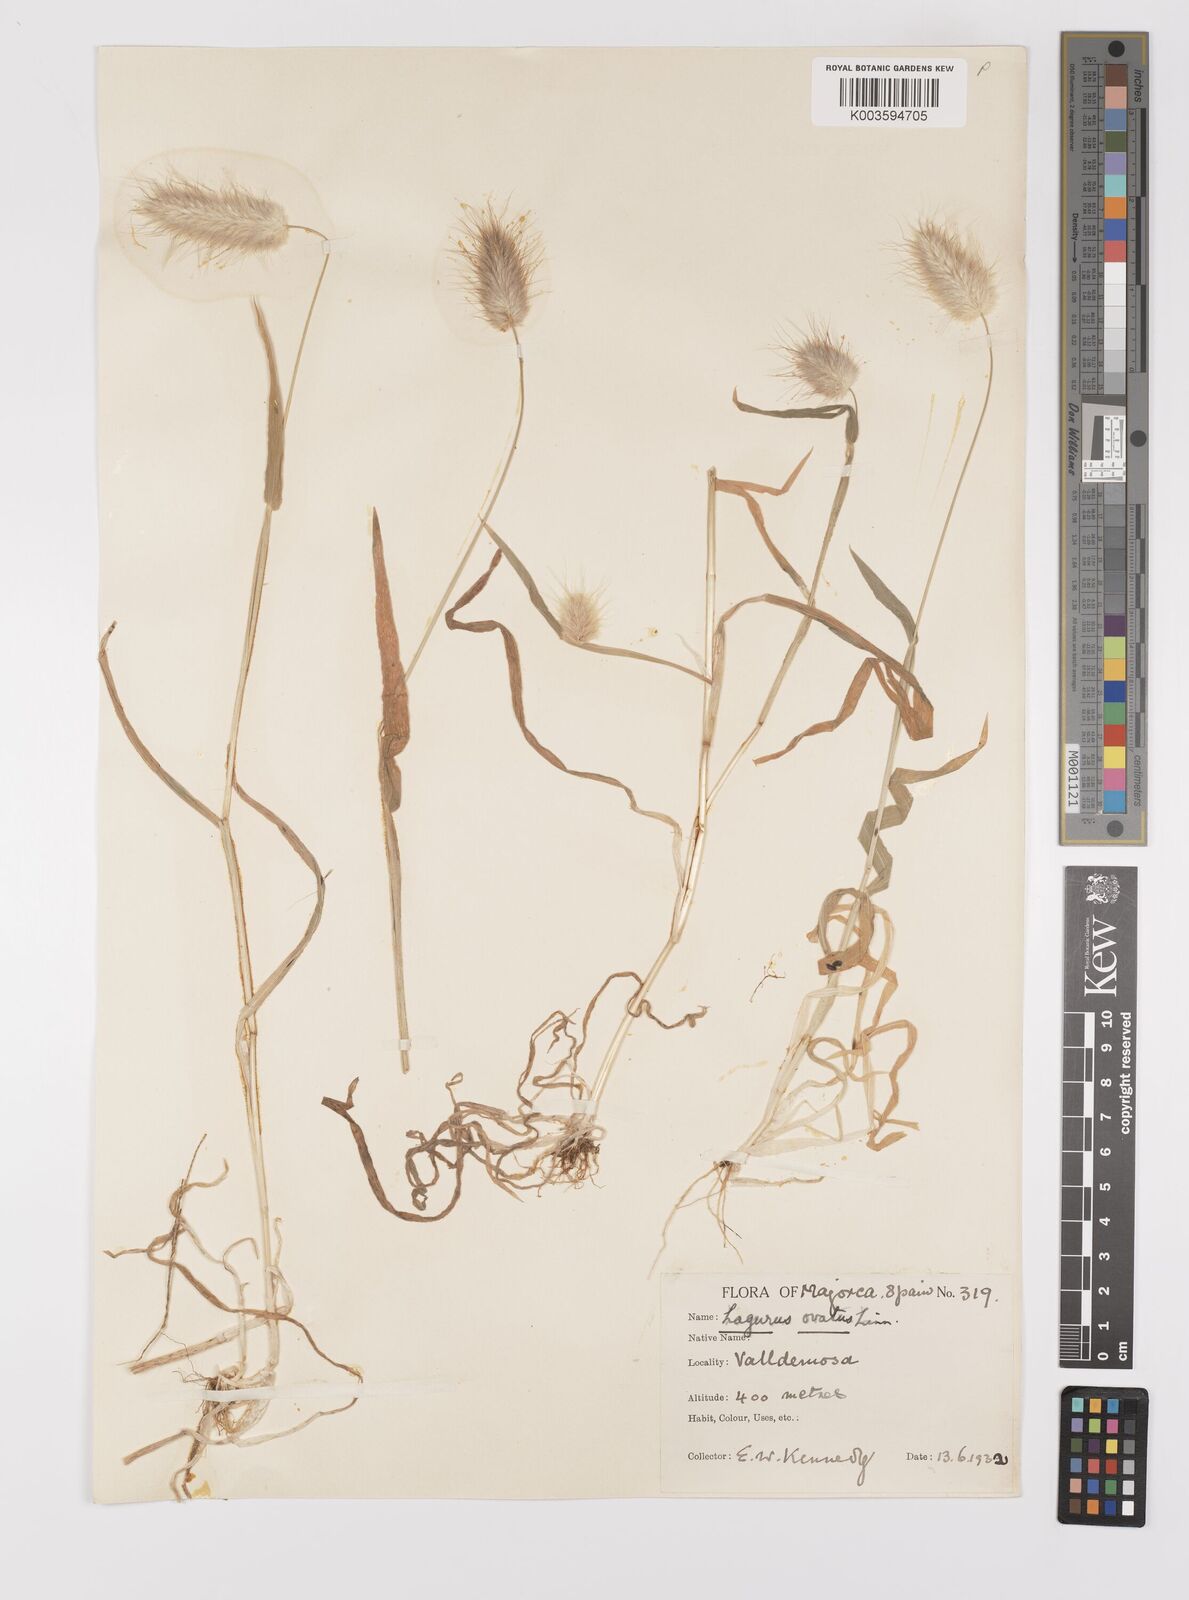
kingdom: Plantae
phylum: Tracheophyta
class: Liliopsida
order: Poales
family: Poaceae
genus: Lagurus
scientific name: Lagurus ovatus
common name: Hare's-tail
